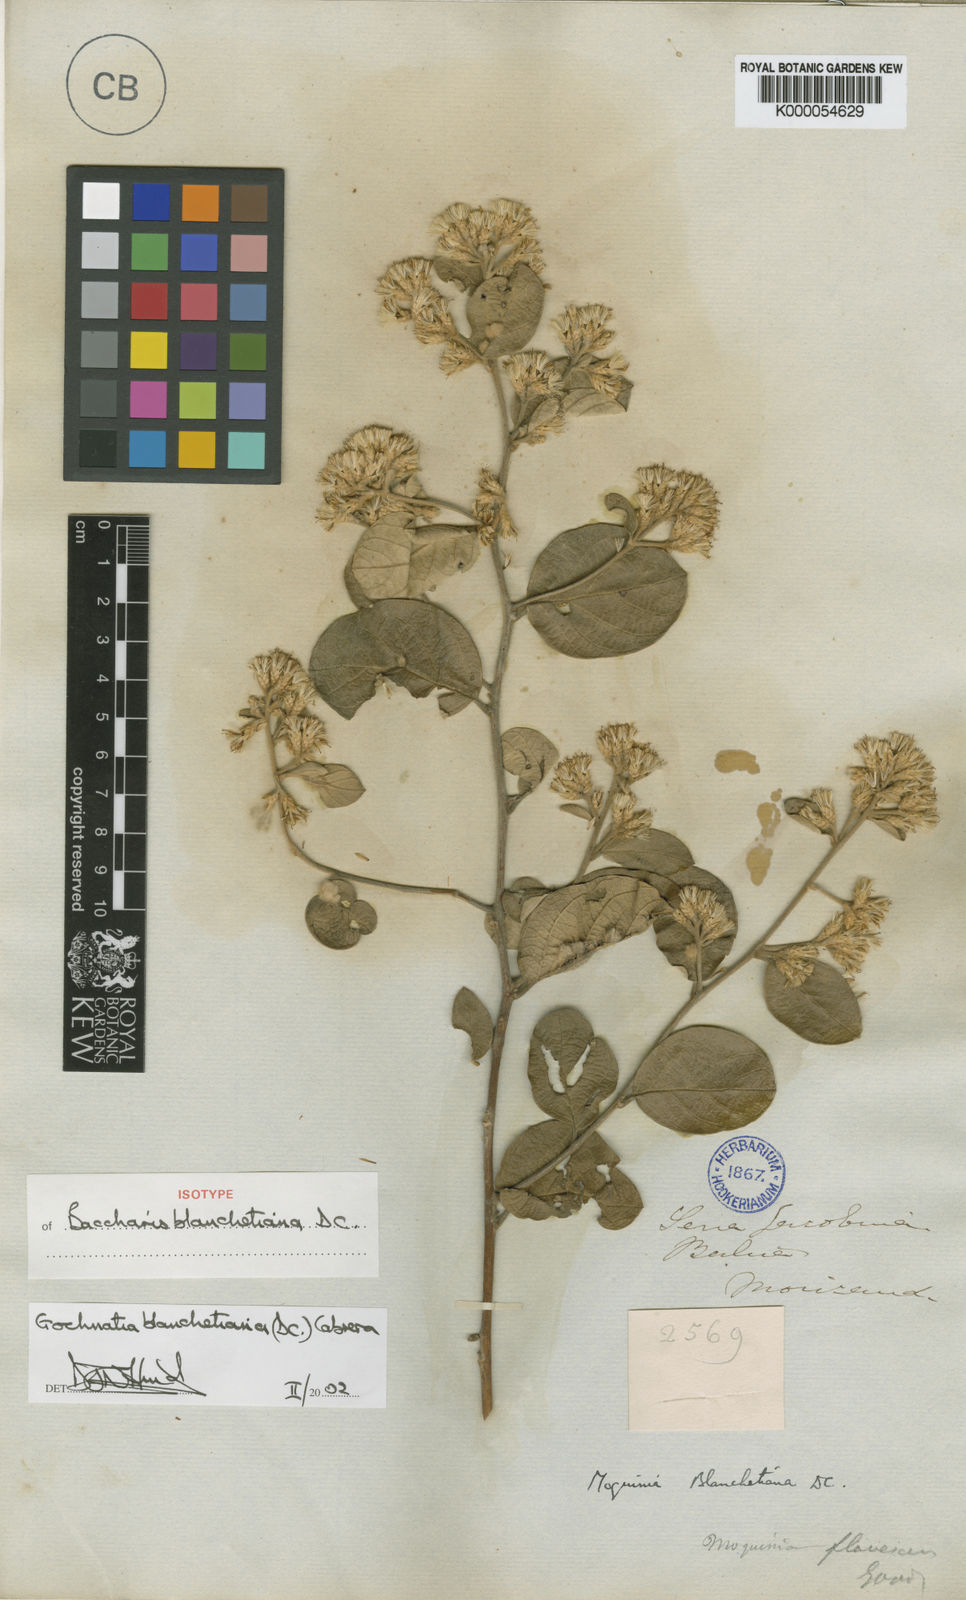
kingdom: Plantae
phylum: Tracheophyta
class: Magnoliopsida
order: Asterales
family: Asteraceae
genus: Moquiniastrum
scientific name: Moquiniastrum blanchetianum
